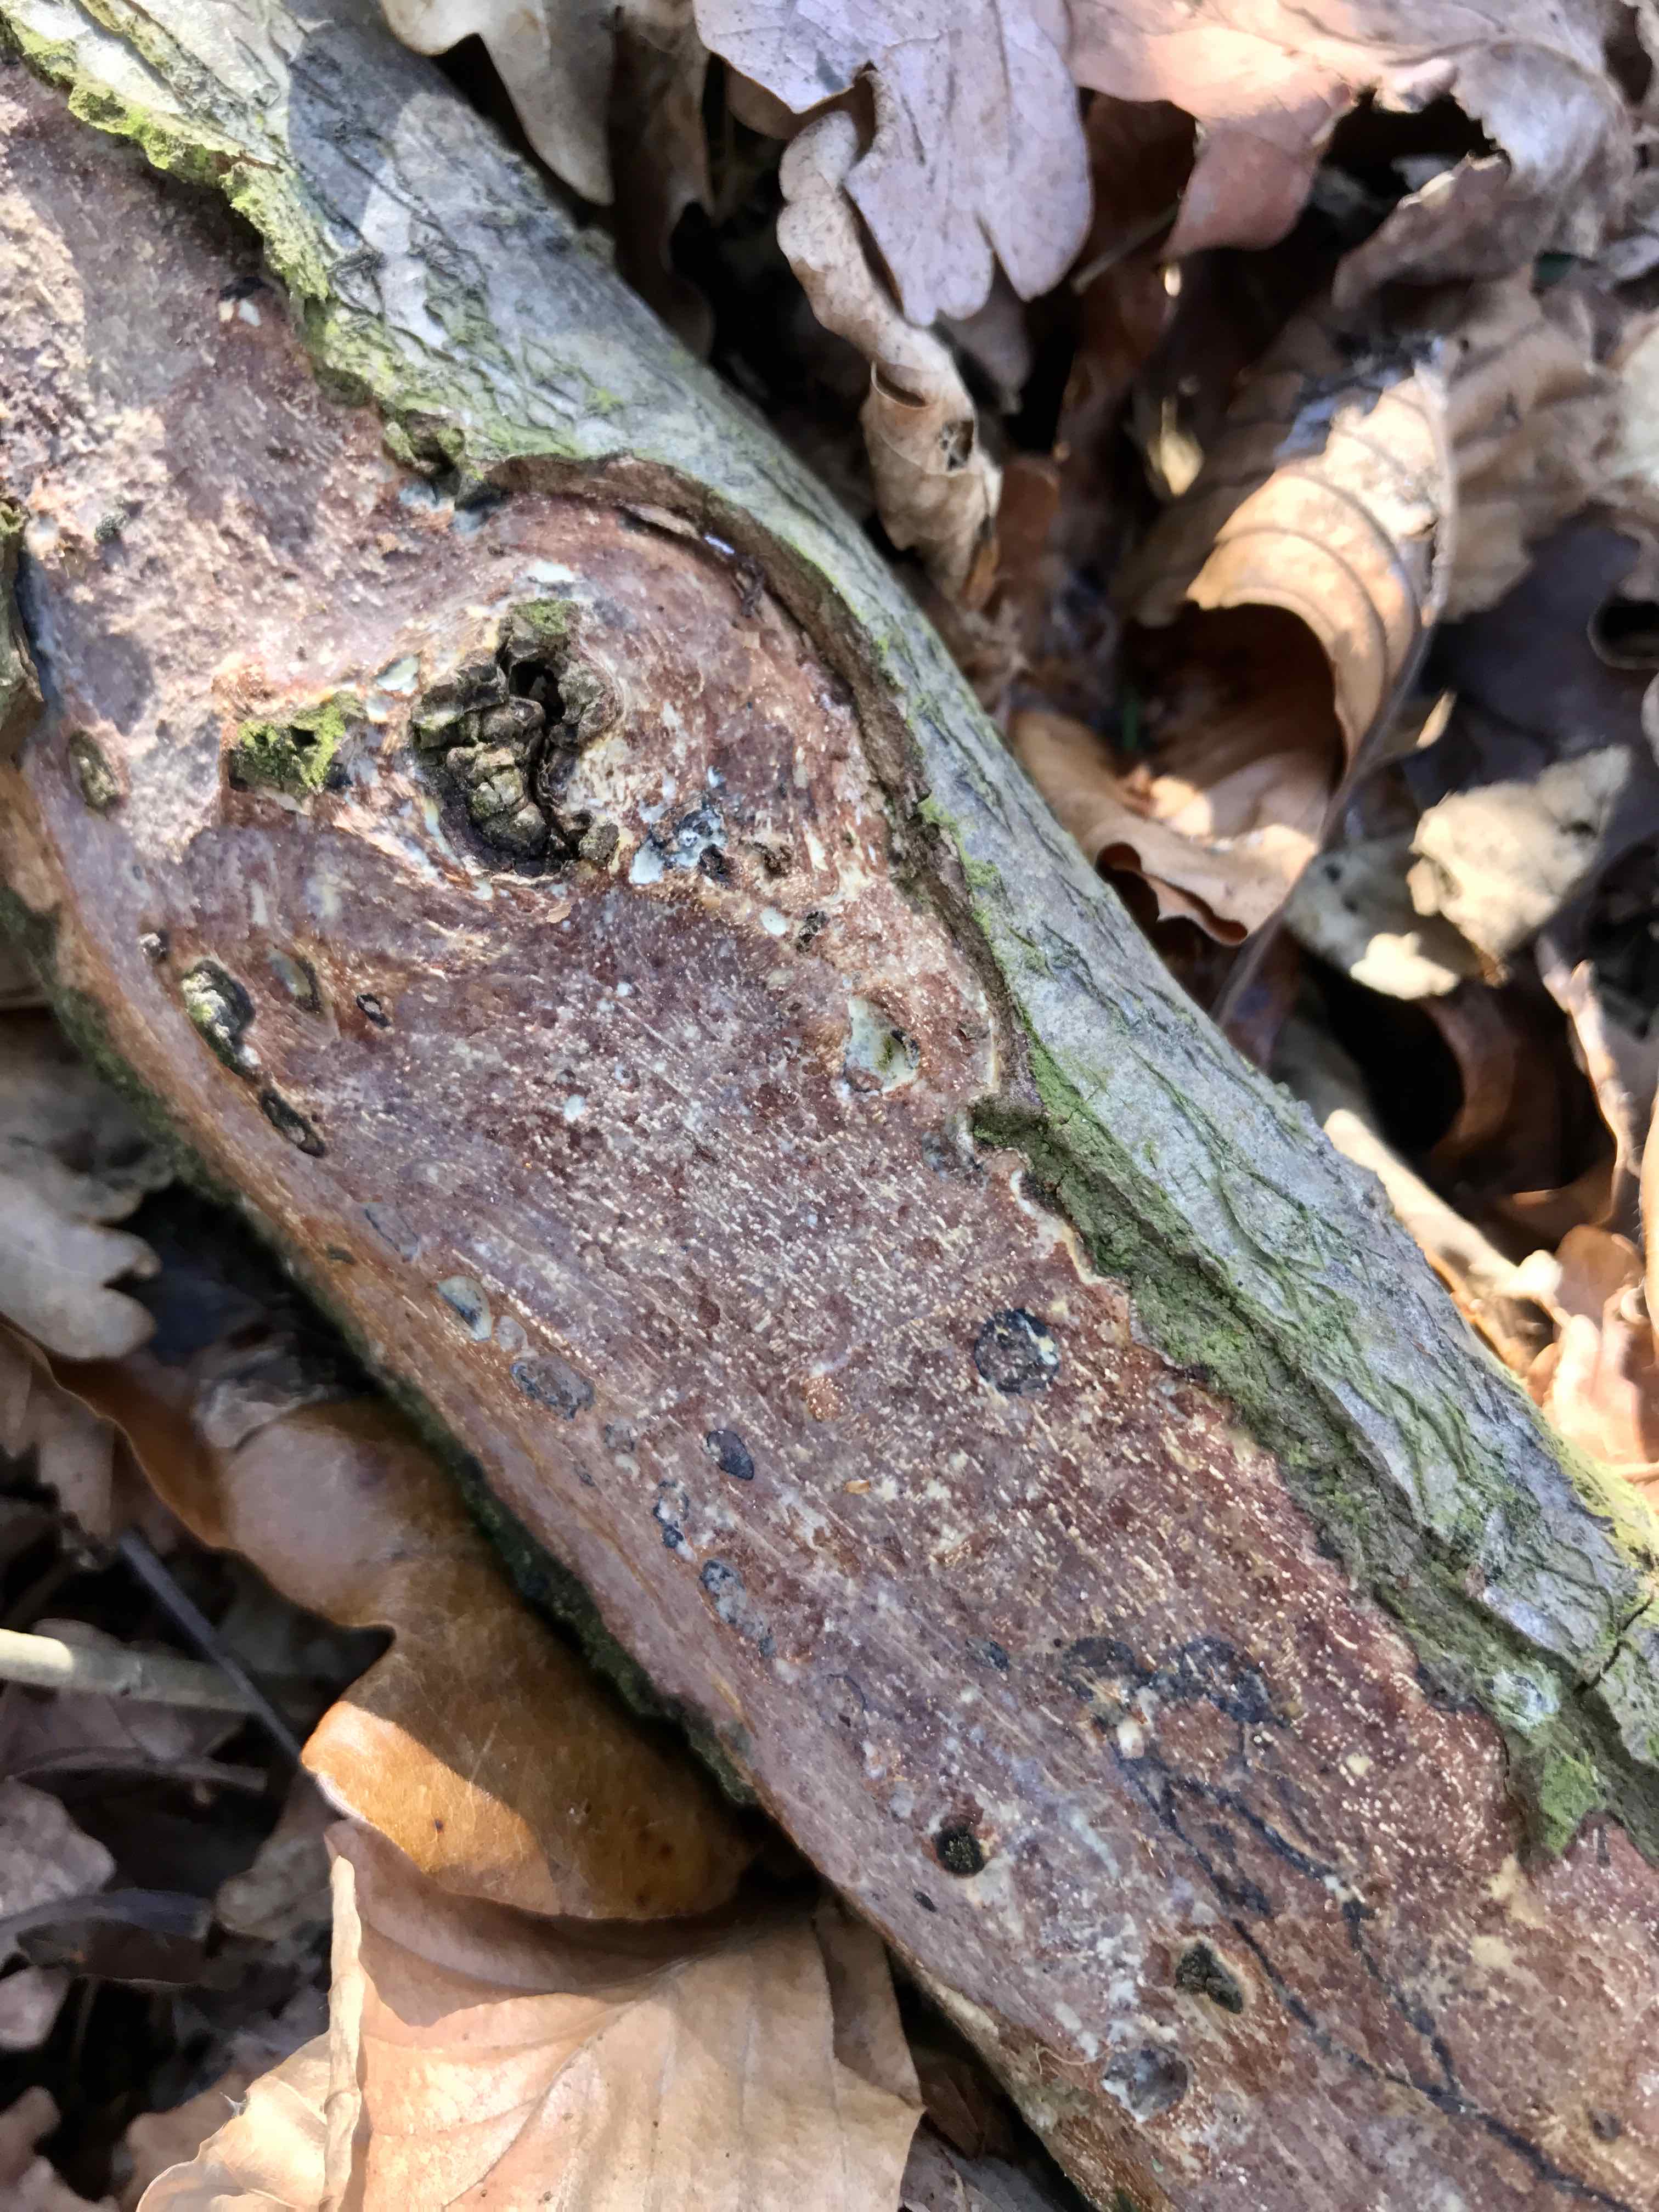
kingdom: Fungi
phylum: Basidiomycota
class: Agaricomycetes
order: Corticiales
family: Vuilleminiaceae
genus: Vuilleminia
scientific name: Vuilleminia comedens
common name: almindelig barksprænger
